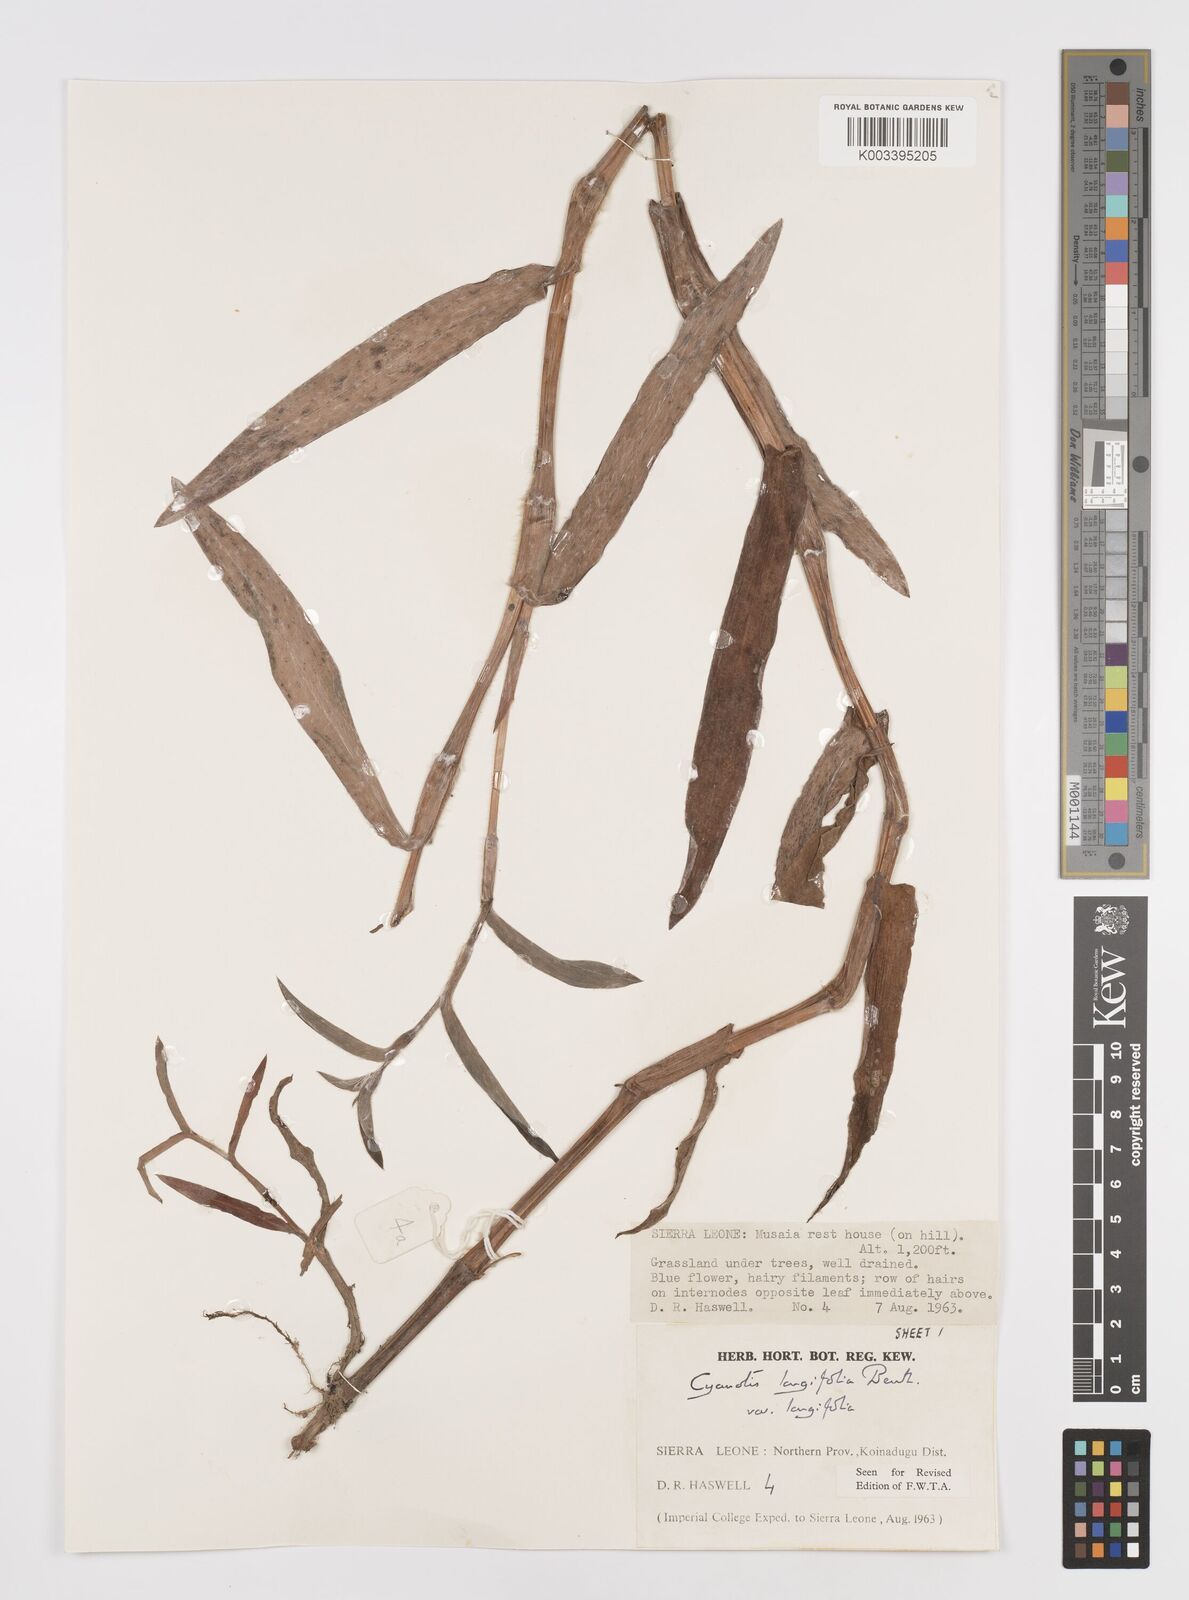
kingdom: Plantae
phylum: Tracheophyta
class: Liliopsida
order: Commelinales
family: Commelinaceae
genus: Cyanotis
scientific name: Cyanotis
